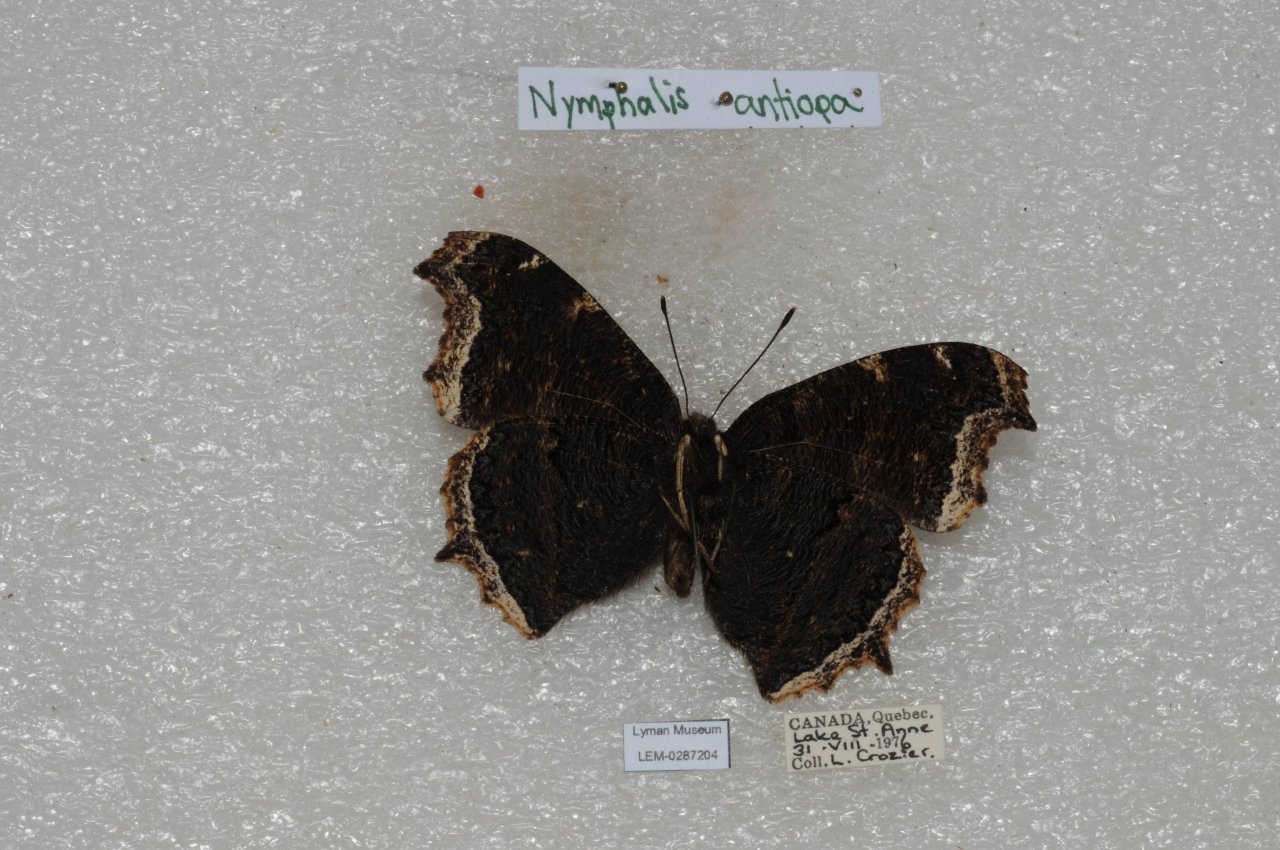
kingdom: Animalia
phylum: Arthropoda
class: Insecta
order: Lepidoptera
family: Nymphalidae
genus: Nymphalis
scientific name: Nymphalis antiopa
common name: Mourning Cloak
